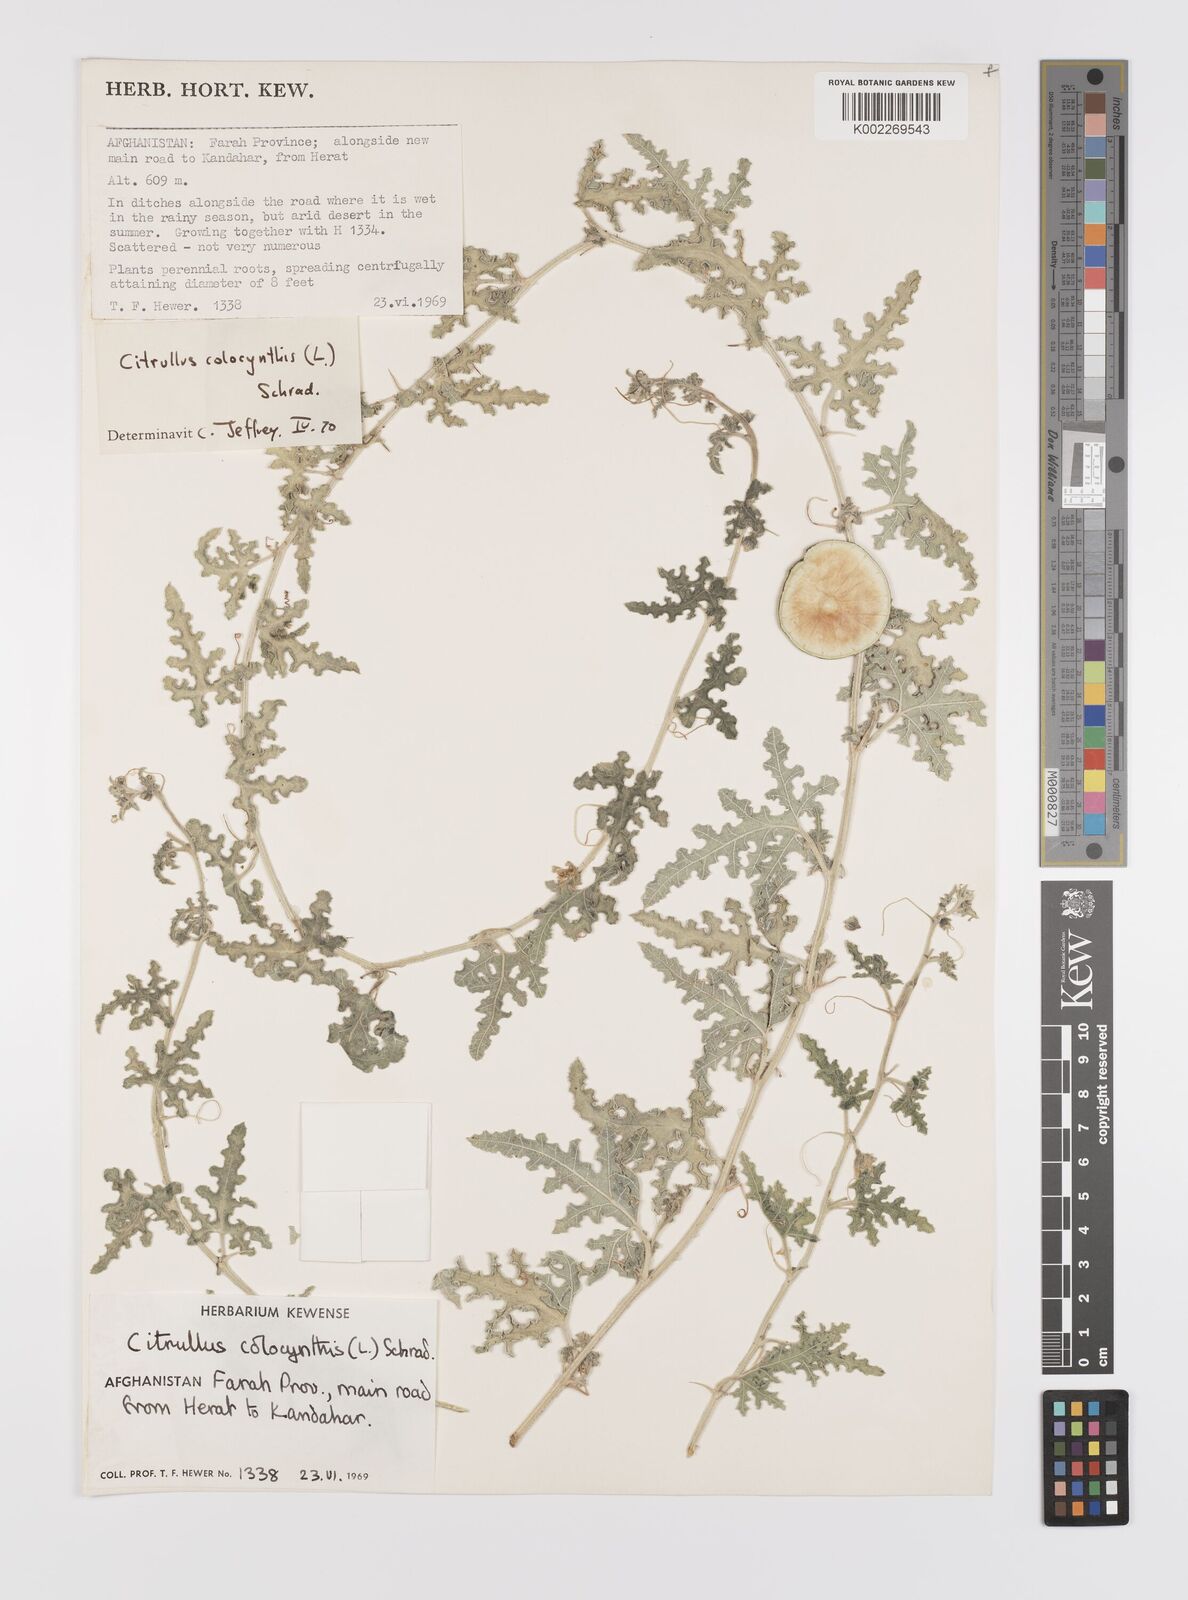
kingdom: Plantae
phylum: Tracheophyta
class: Magnoliopsida
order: Cucurbitales
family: Cucurbitaceae
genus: Citrullus
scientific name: Citrullus colocynthis
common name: Colocynth
